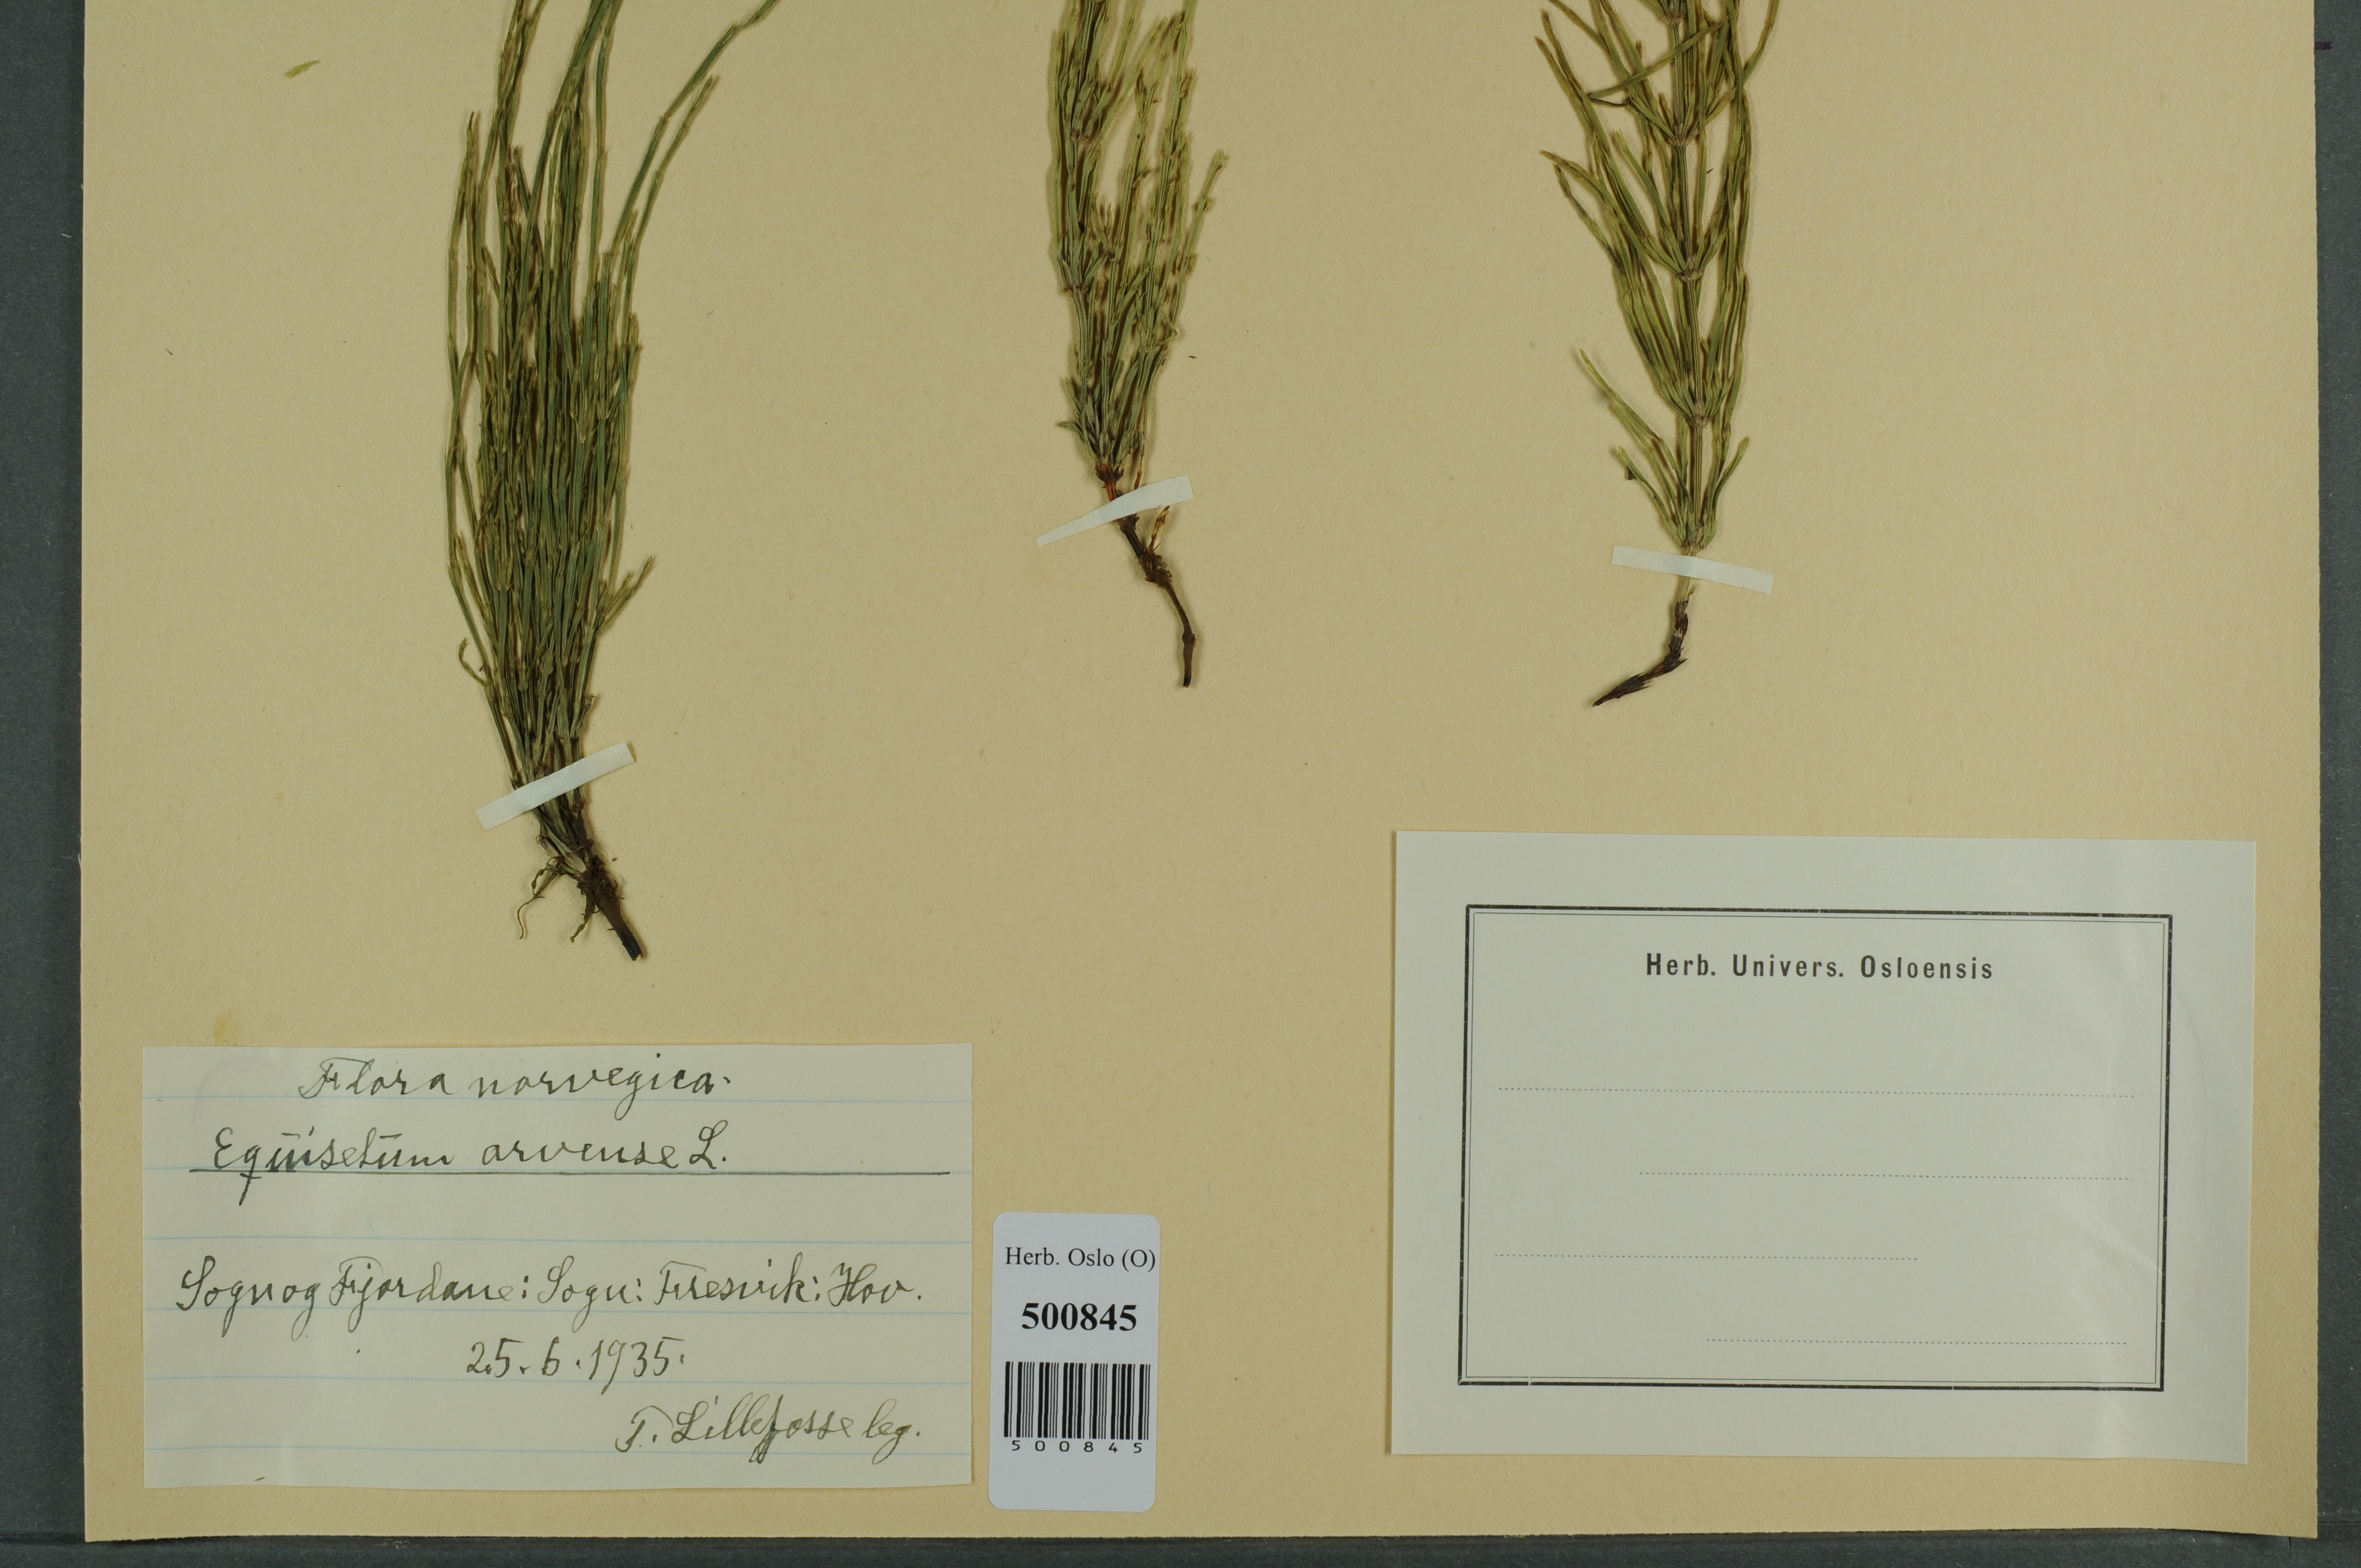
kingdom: Plantae
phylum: Tracheophyta
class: Polypodiopsida
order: Equisetales
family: Equisetaceae
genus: Equisetum
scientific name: Equisetum arvense
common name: Field horsetail
